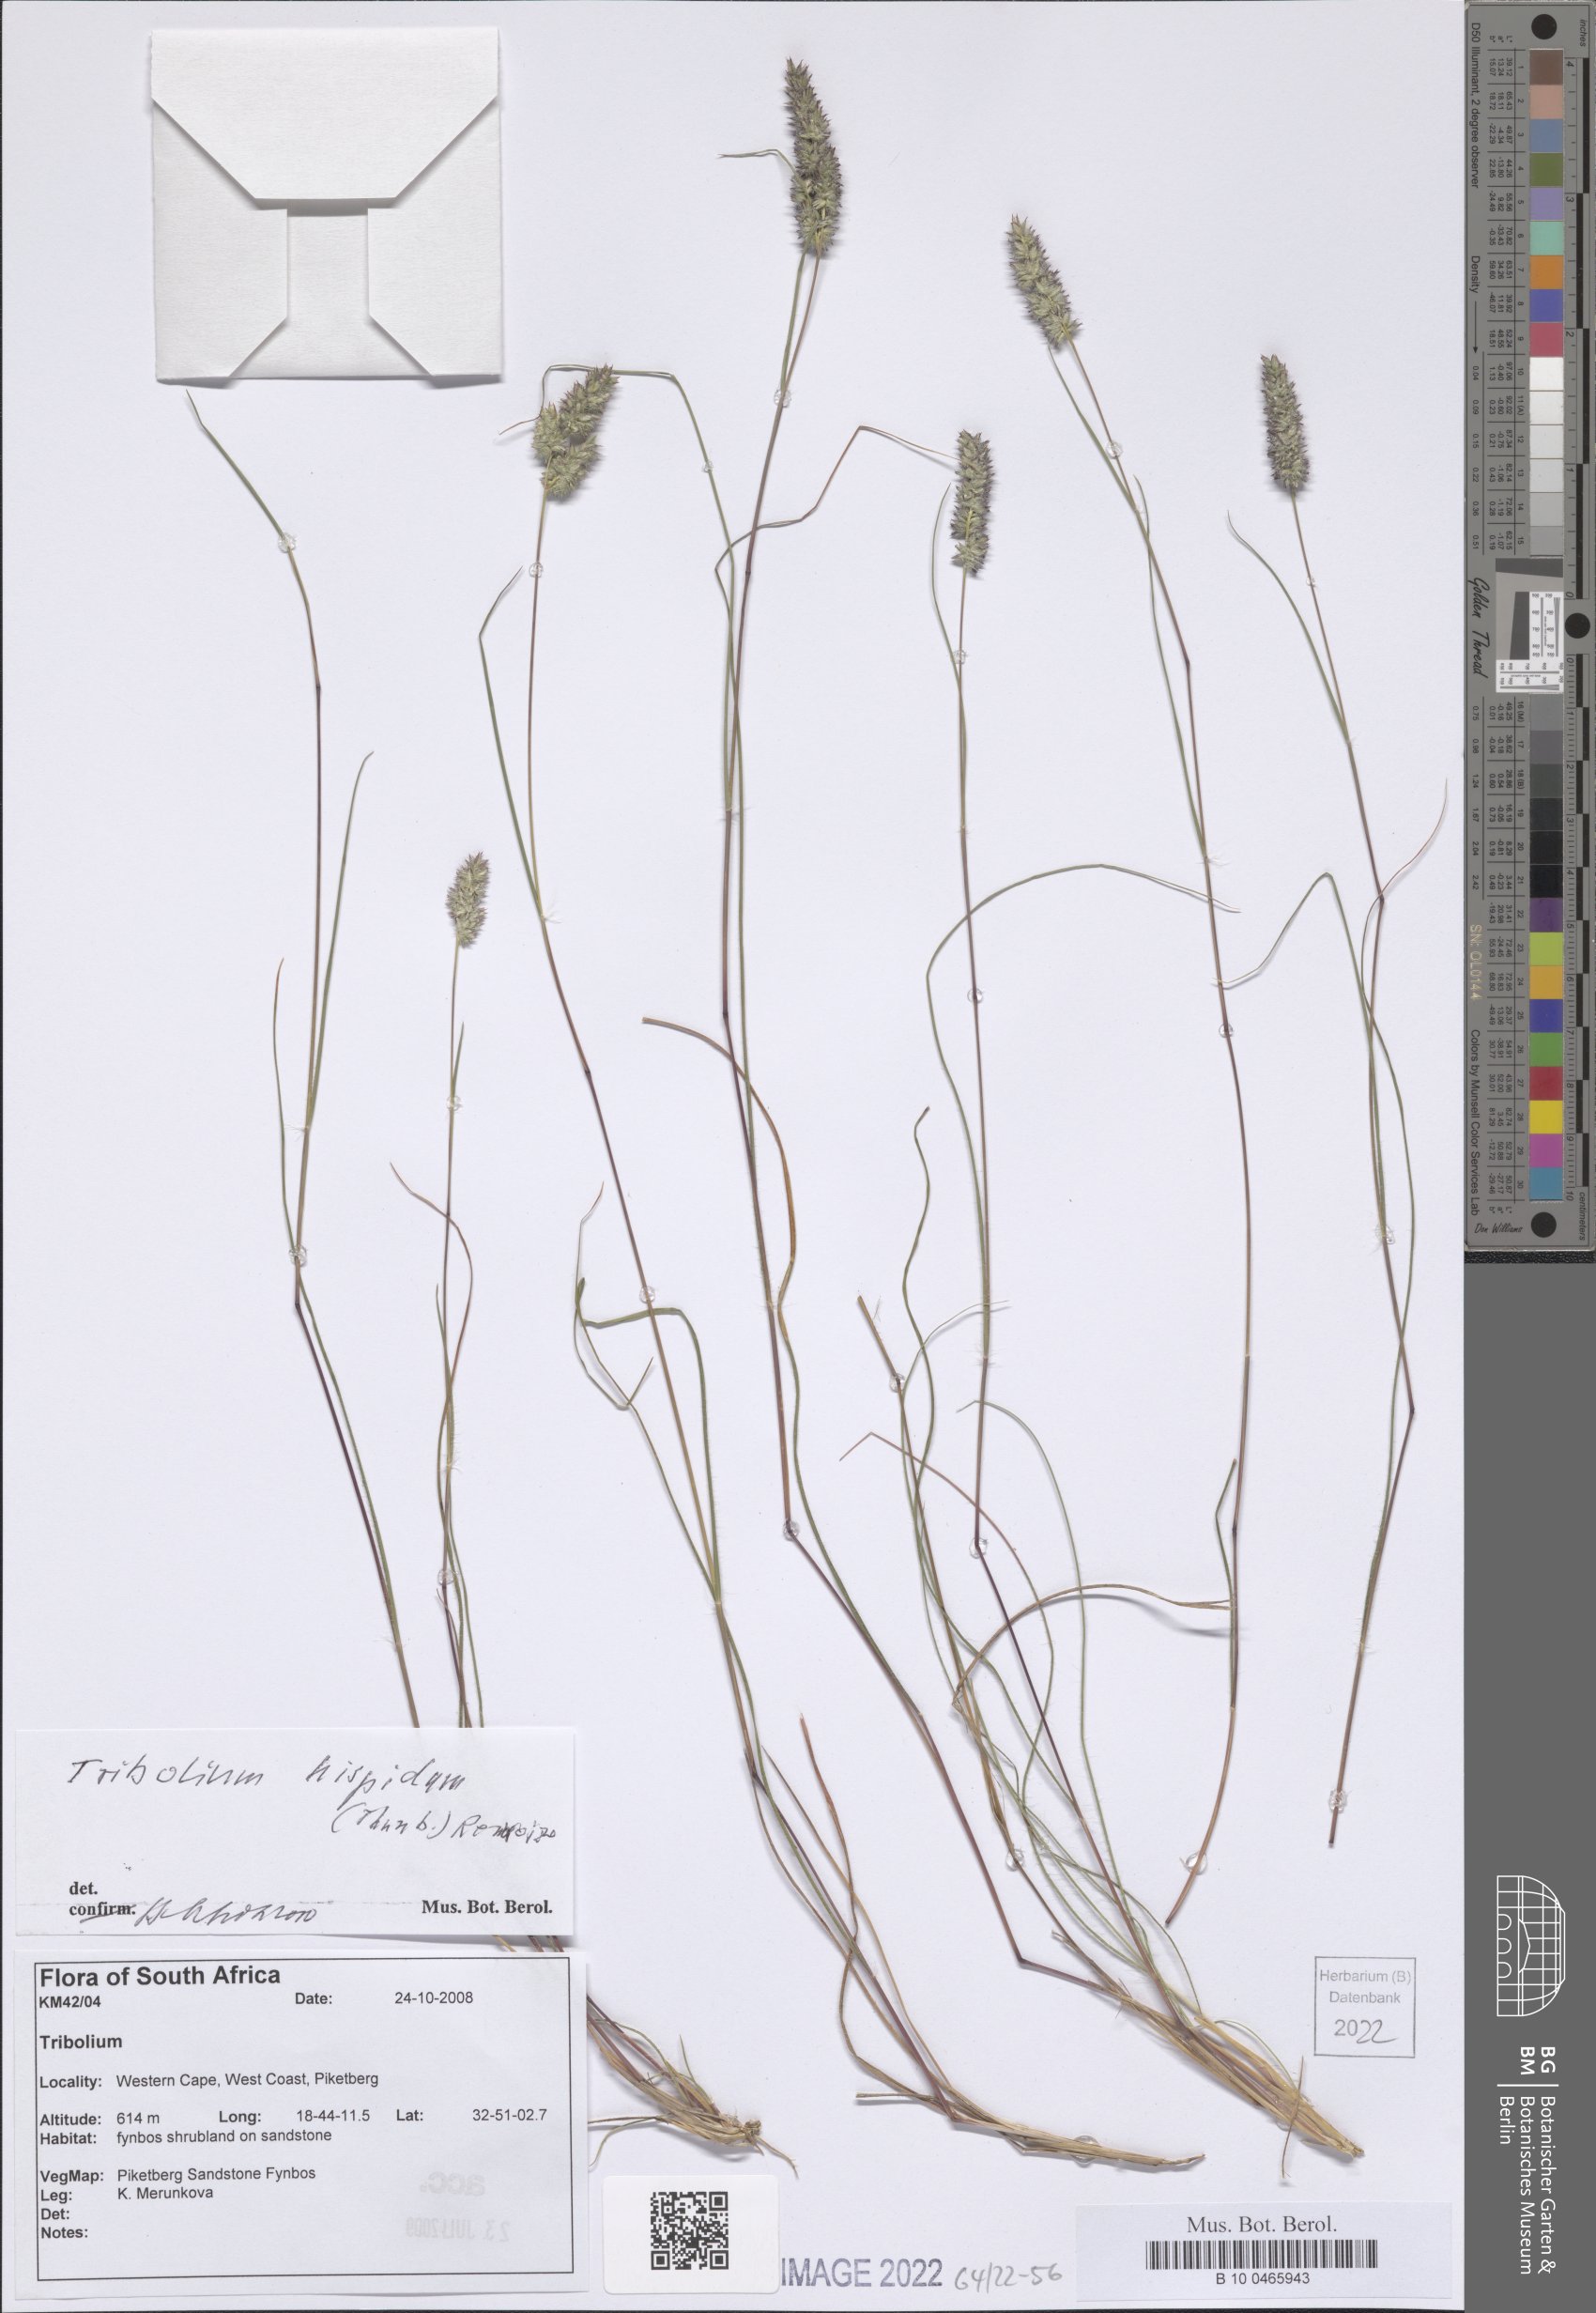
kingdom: Plantae
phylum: Tracheophyta
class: Liliopsida
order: Poales
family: Poaceae
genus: Tribolium
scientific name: Tribolium hispidum
